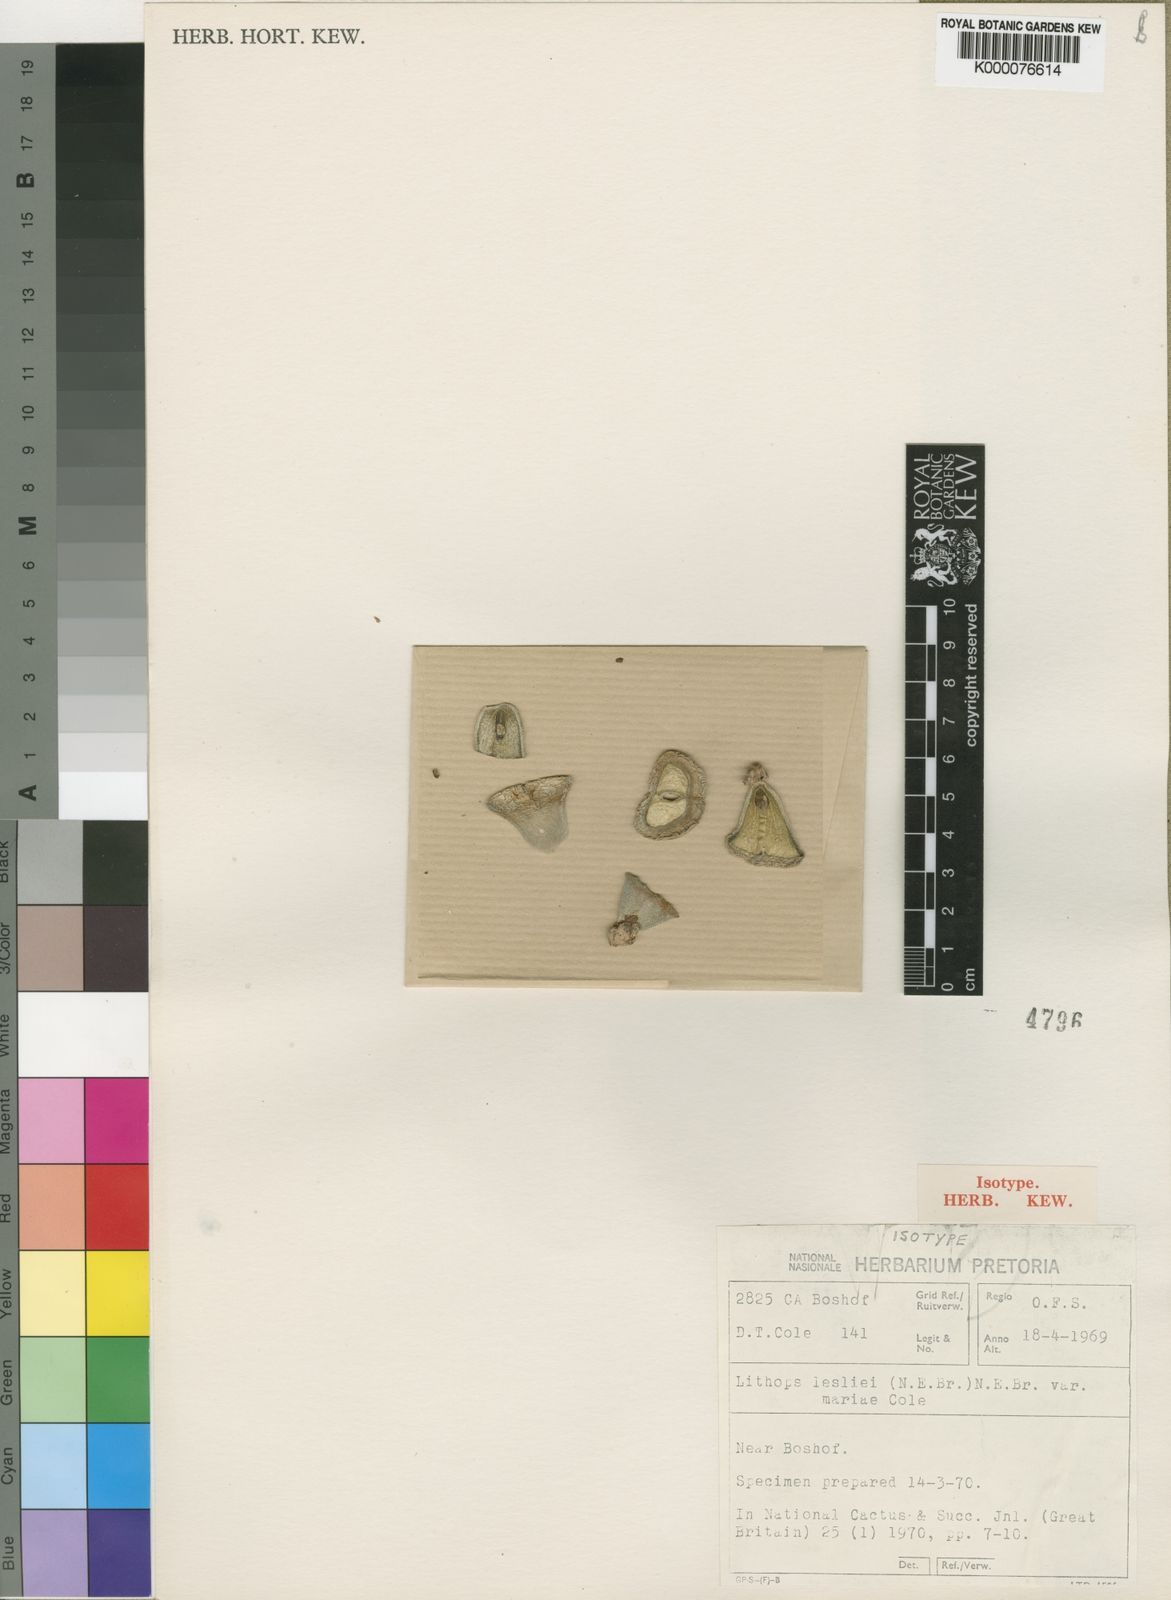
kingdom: Plantae
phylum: Tracheophyta
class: Magnoliopsida
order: Caryophyllales
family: Aizoaceae
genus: Lithops
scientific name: Lithops lesliei
